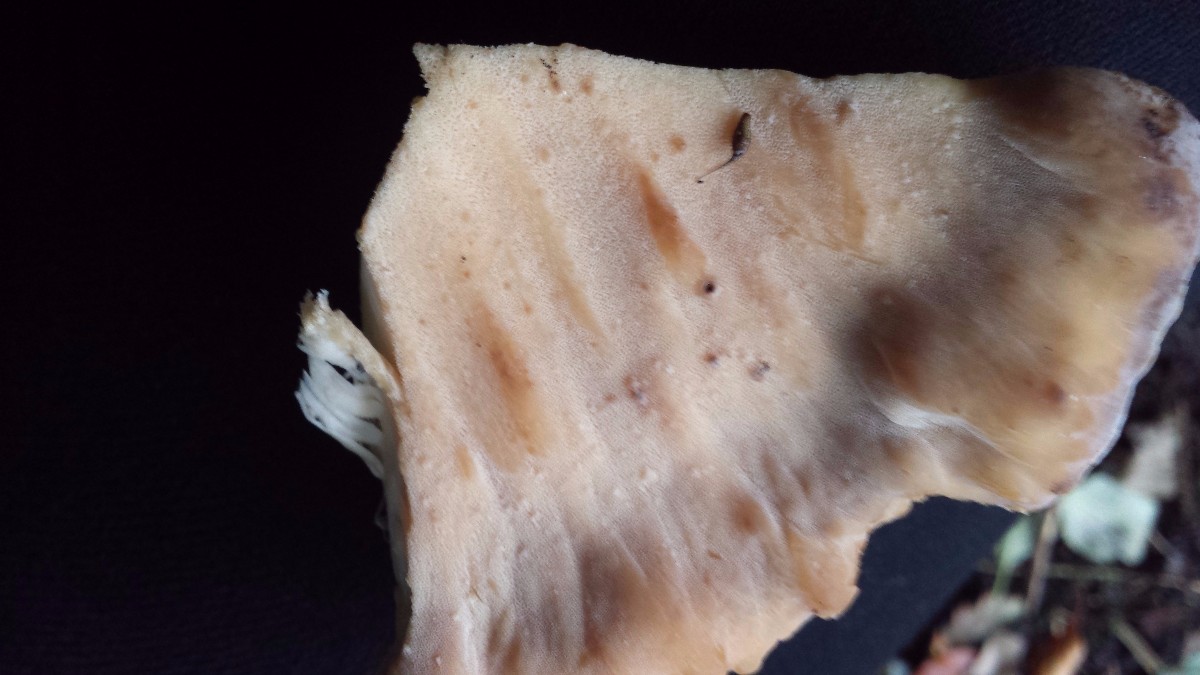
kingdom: Fungi
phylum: Basidiomycota
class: Agaricomycetes
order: Polyporales
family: Meripilaceae
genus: Meripilus
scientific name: Meripilus giganteus
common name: kæmpeporesvamp
